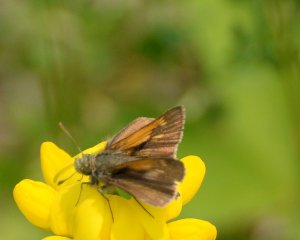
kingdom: Animalia
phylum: Arthropoda
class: Insecta
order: Lepidoptera
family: Hesperiidae
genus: Polites
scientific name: Polites themistocles
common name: Tawny-edged Skipper
